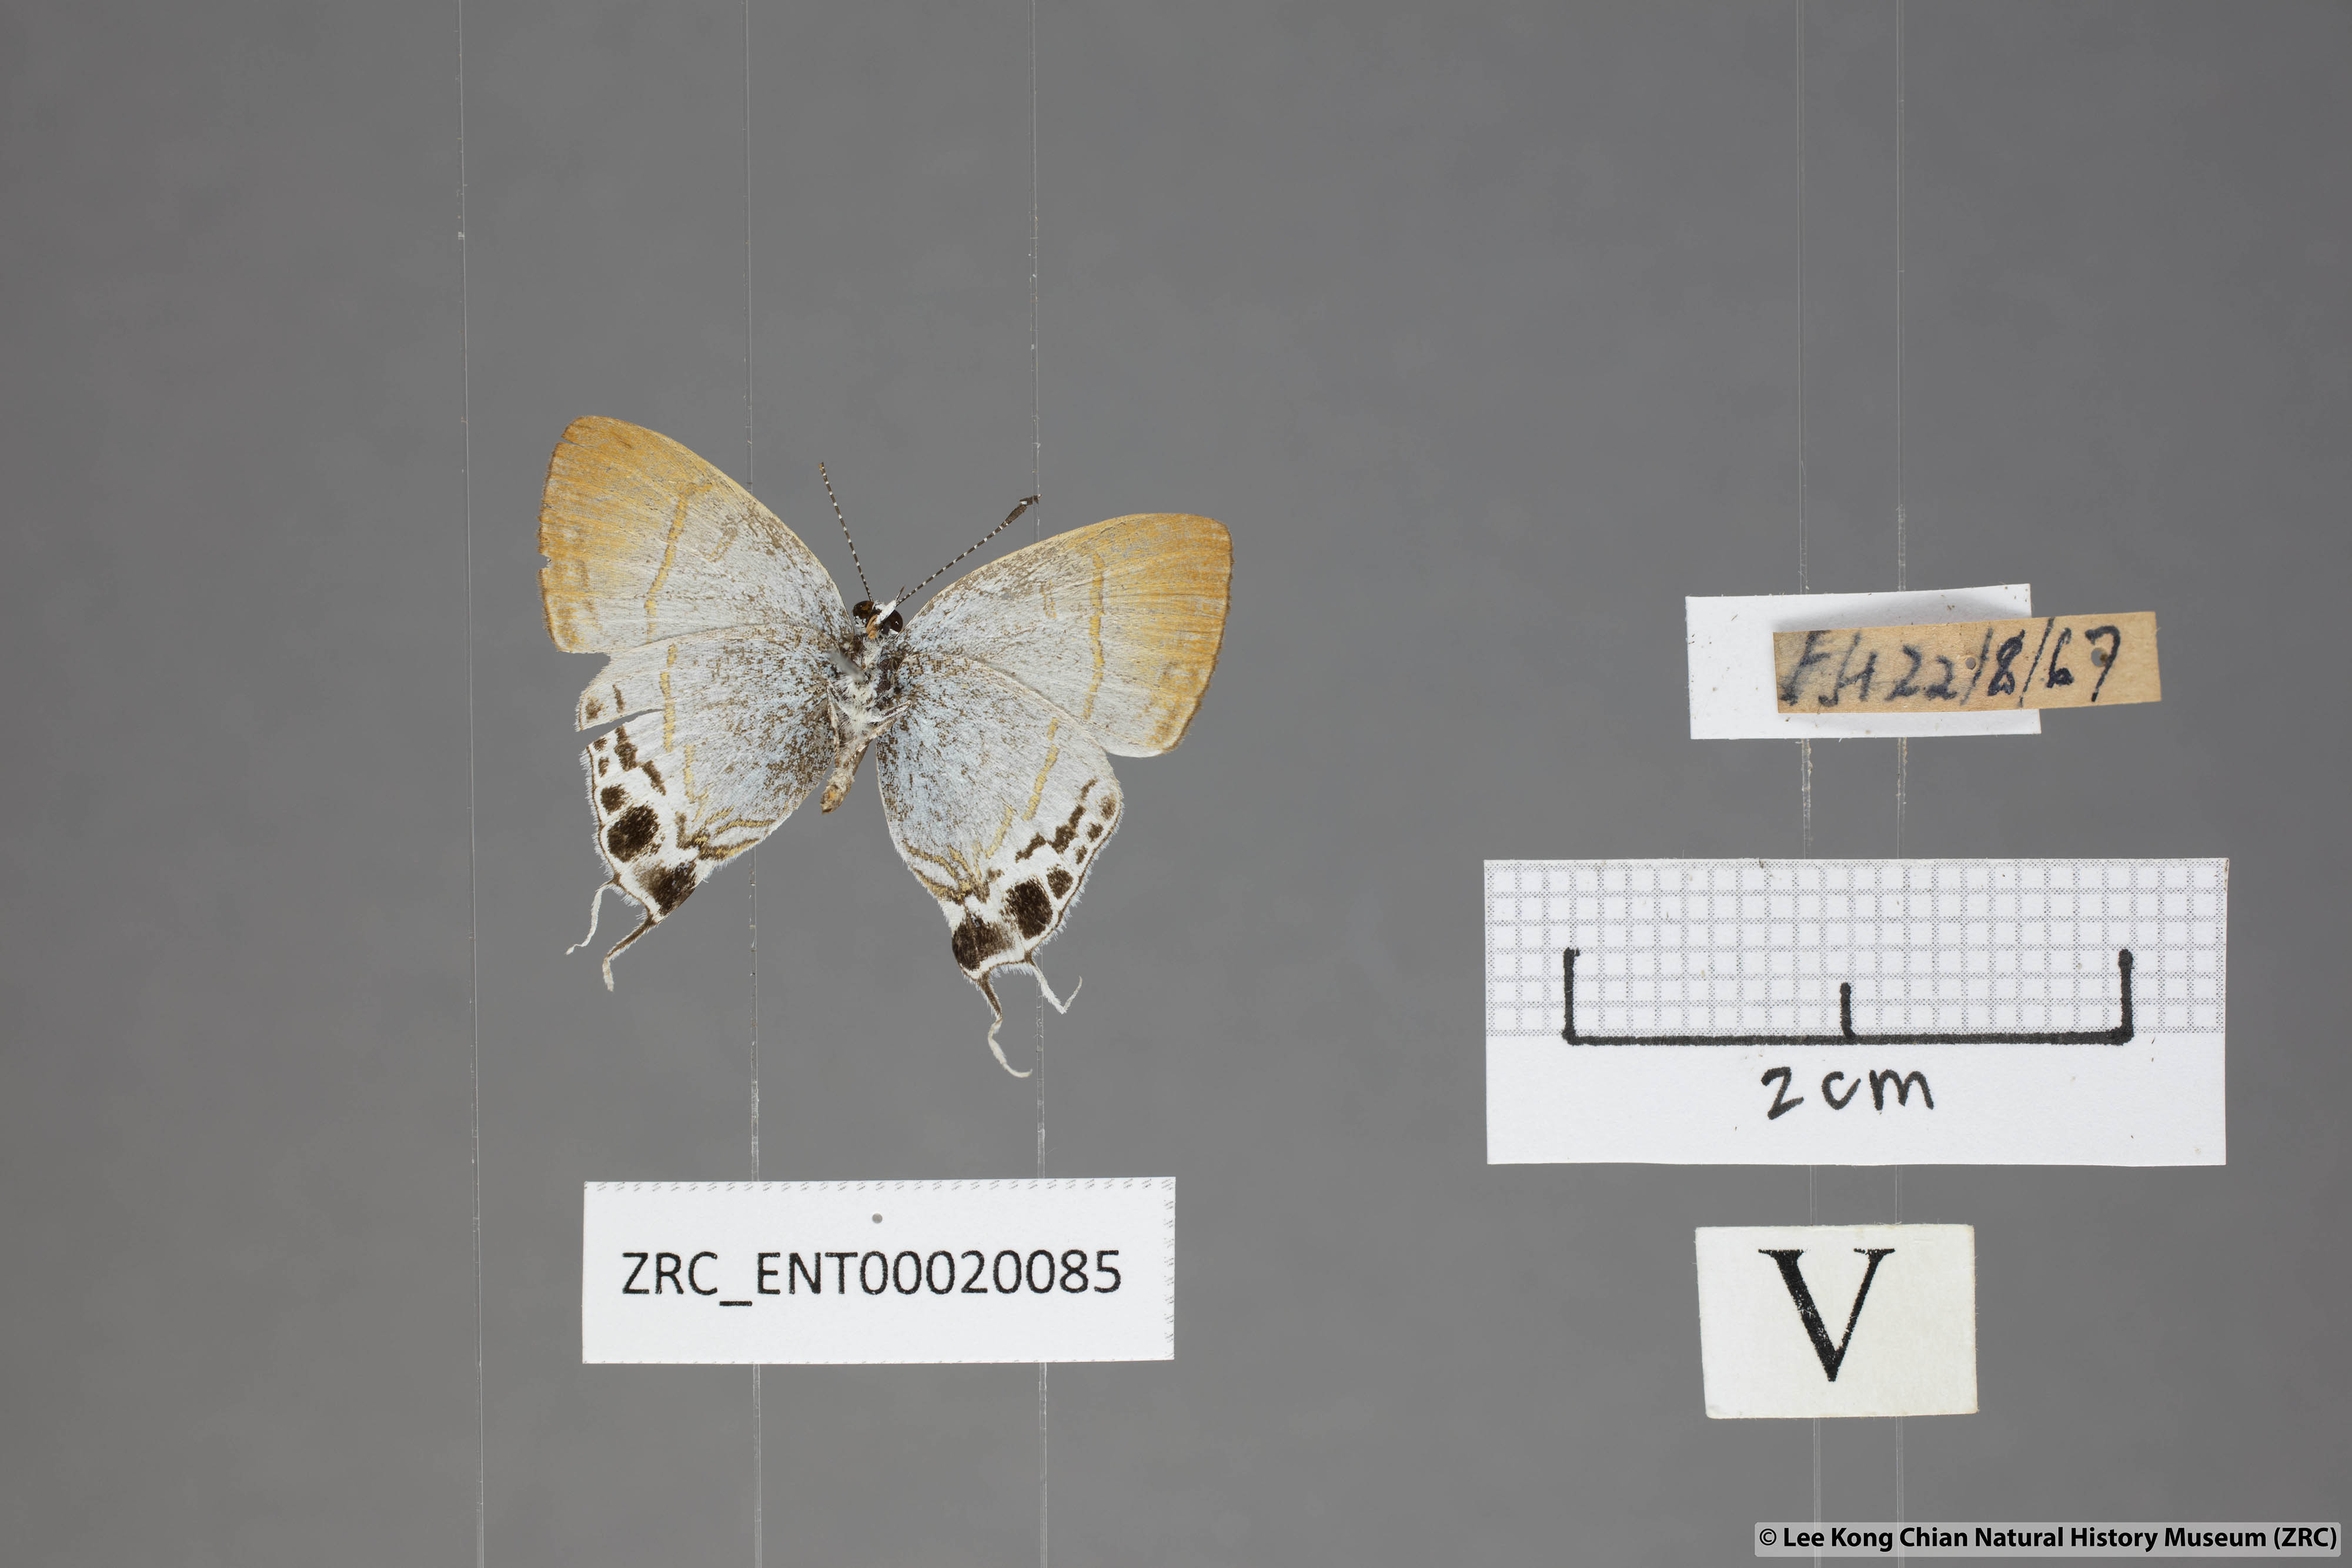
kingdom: Animalia
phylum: Arthropoda
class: Insecta
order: Lepidoptera
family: Lycaenidae
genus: Hypolycaena
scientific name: Hypolycaena amabilis
